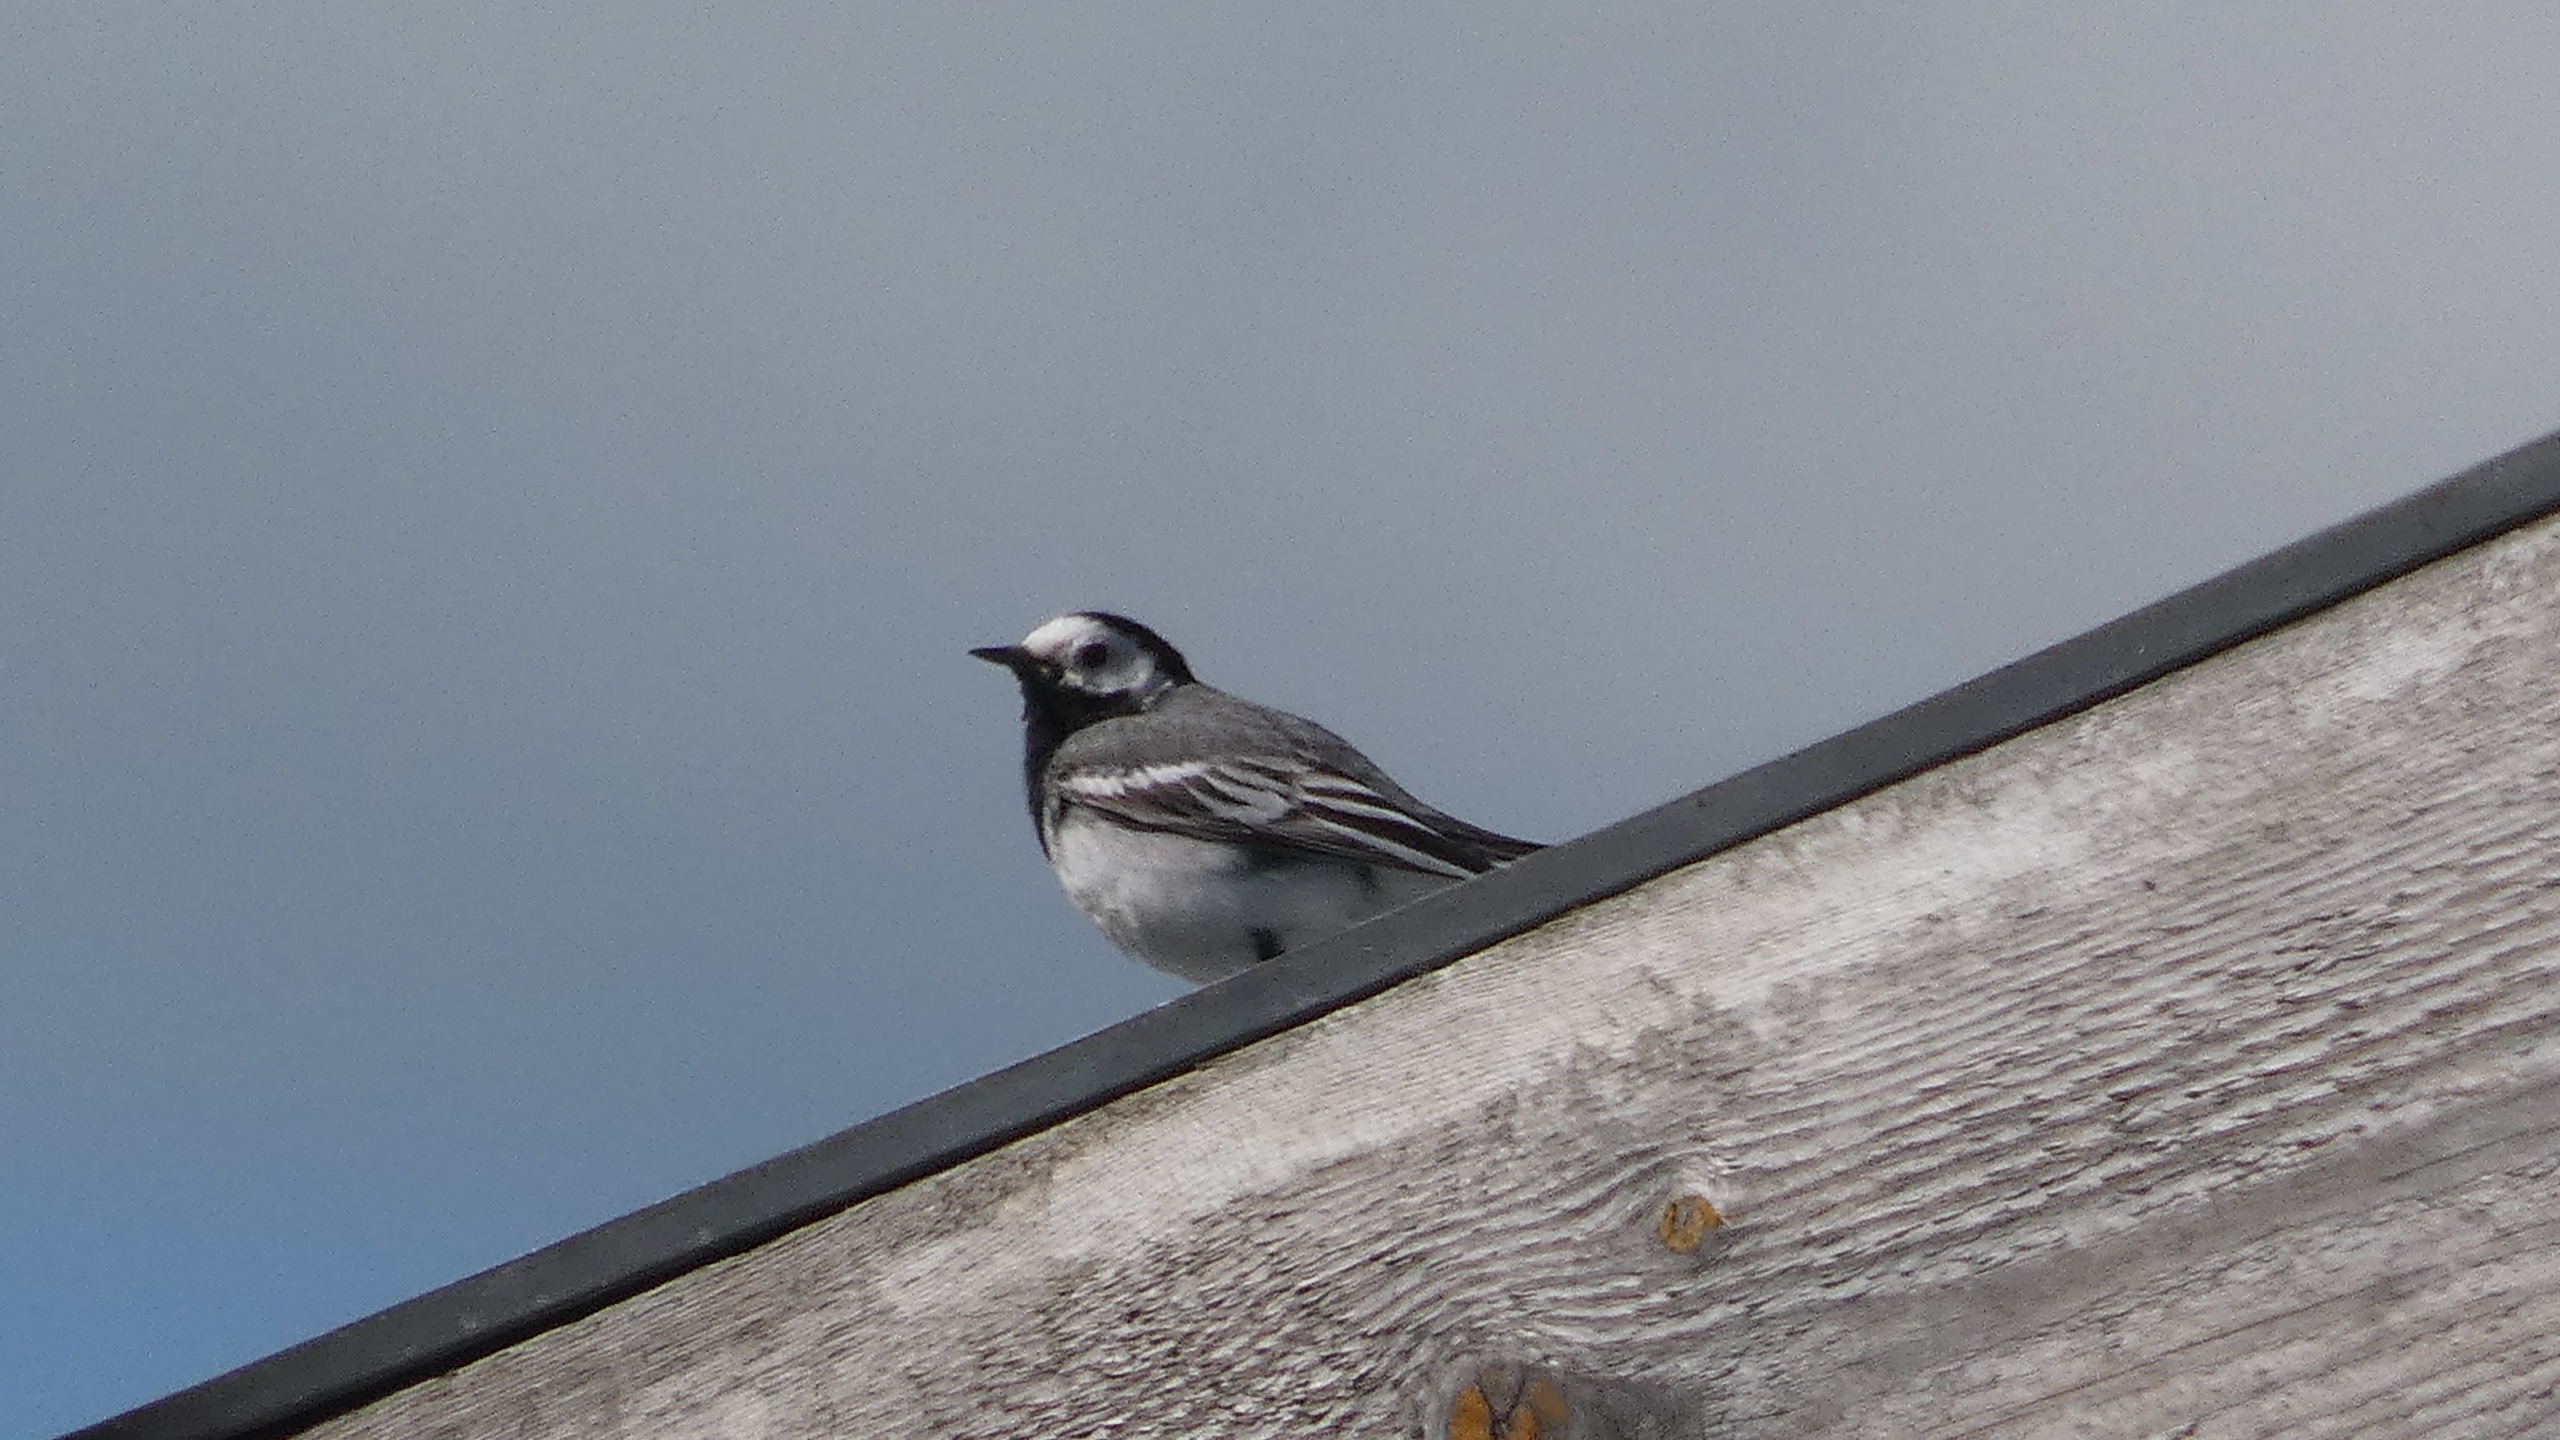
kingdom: Animalia
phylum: Chordata
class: Aves
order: Passeriformes
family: Motacillidae
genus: Motacilla
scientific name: Motacilla alba
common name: Hvid vipstjert
